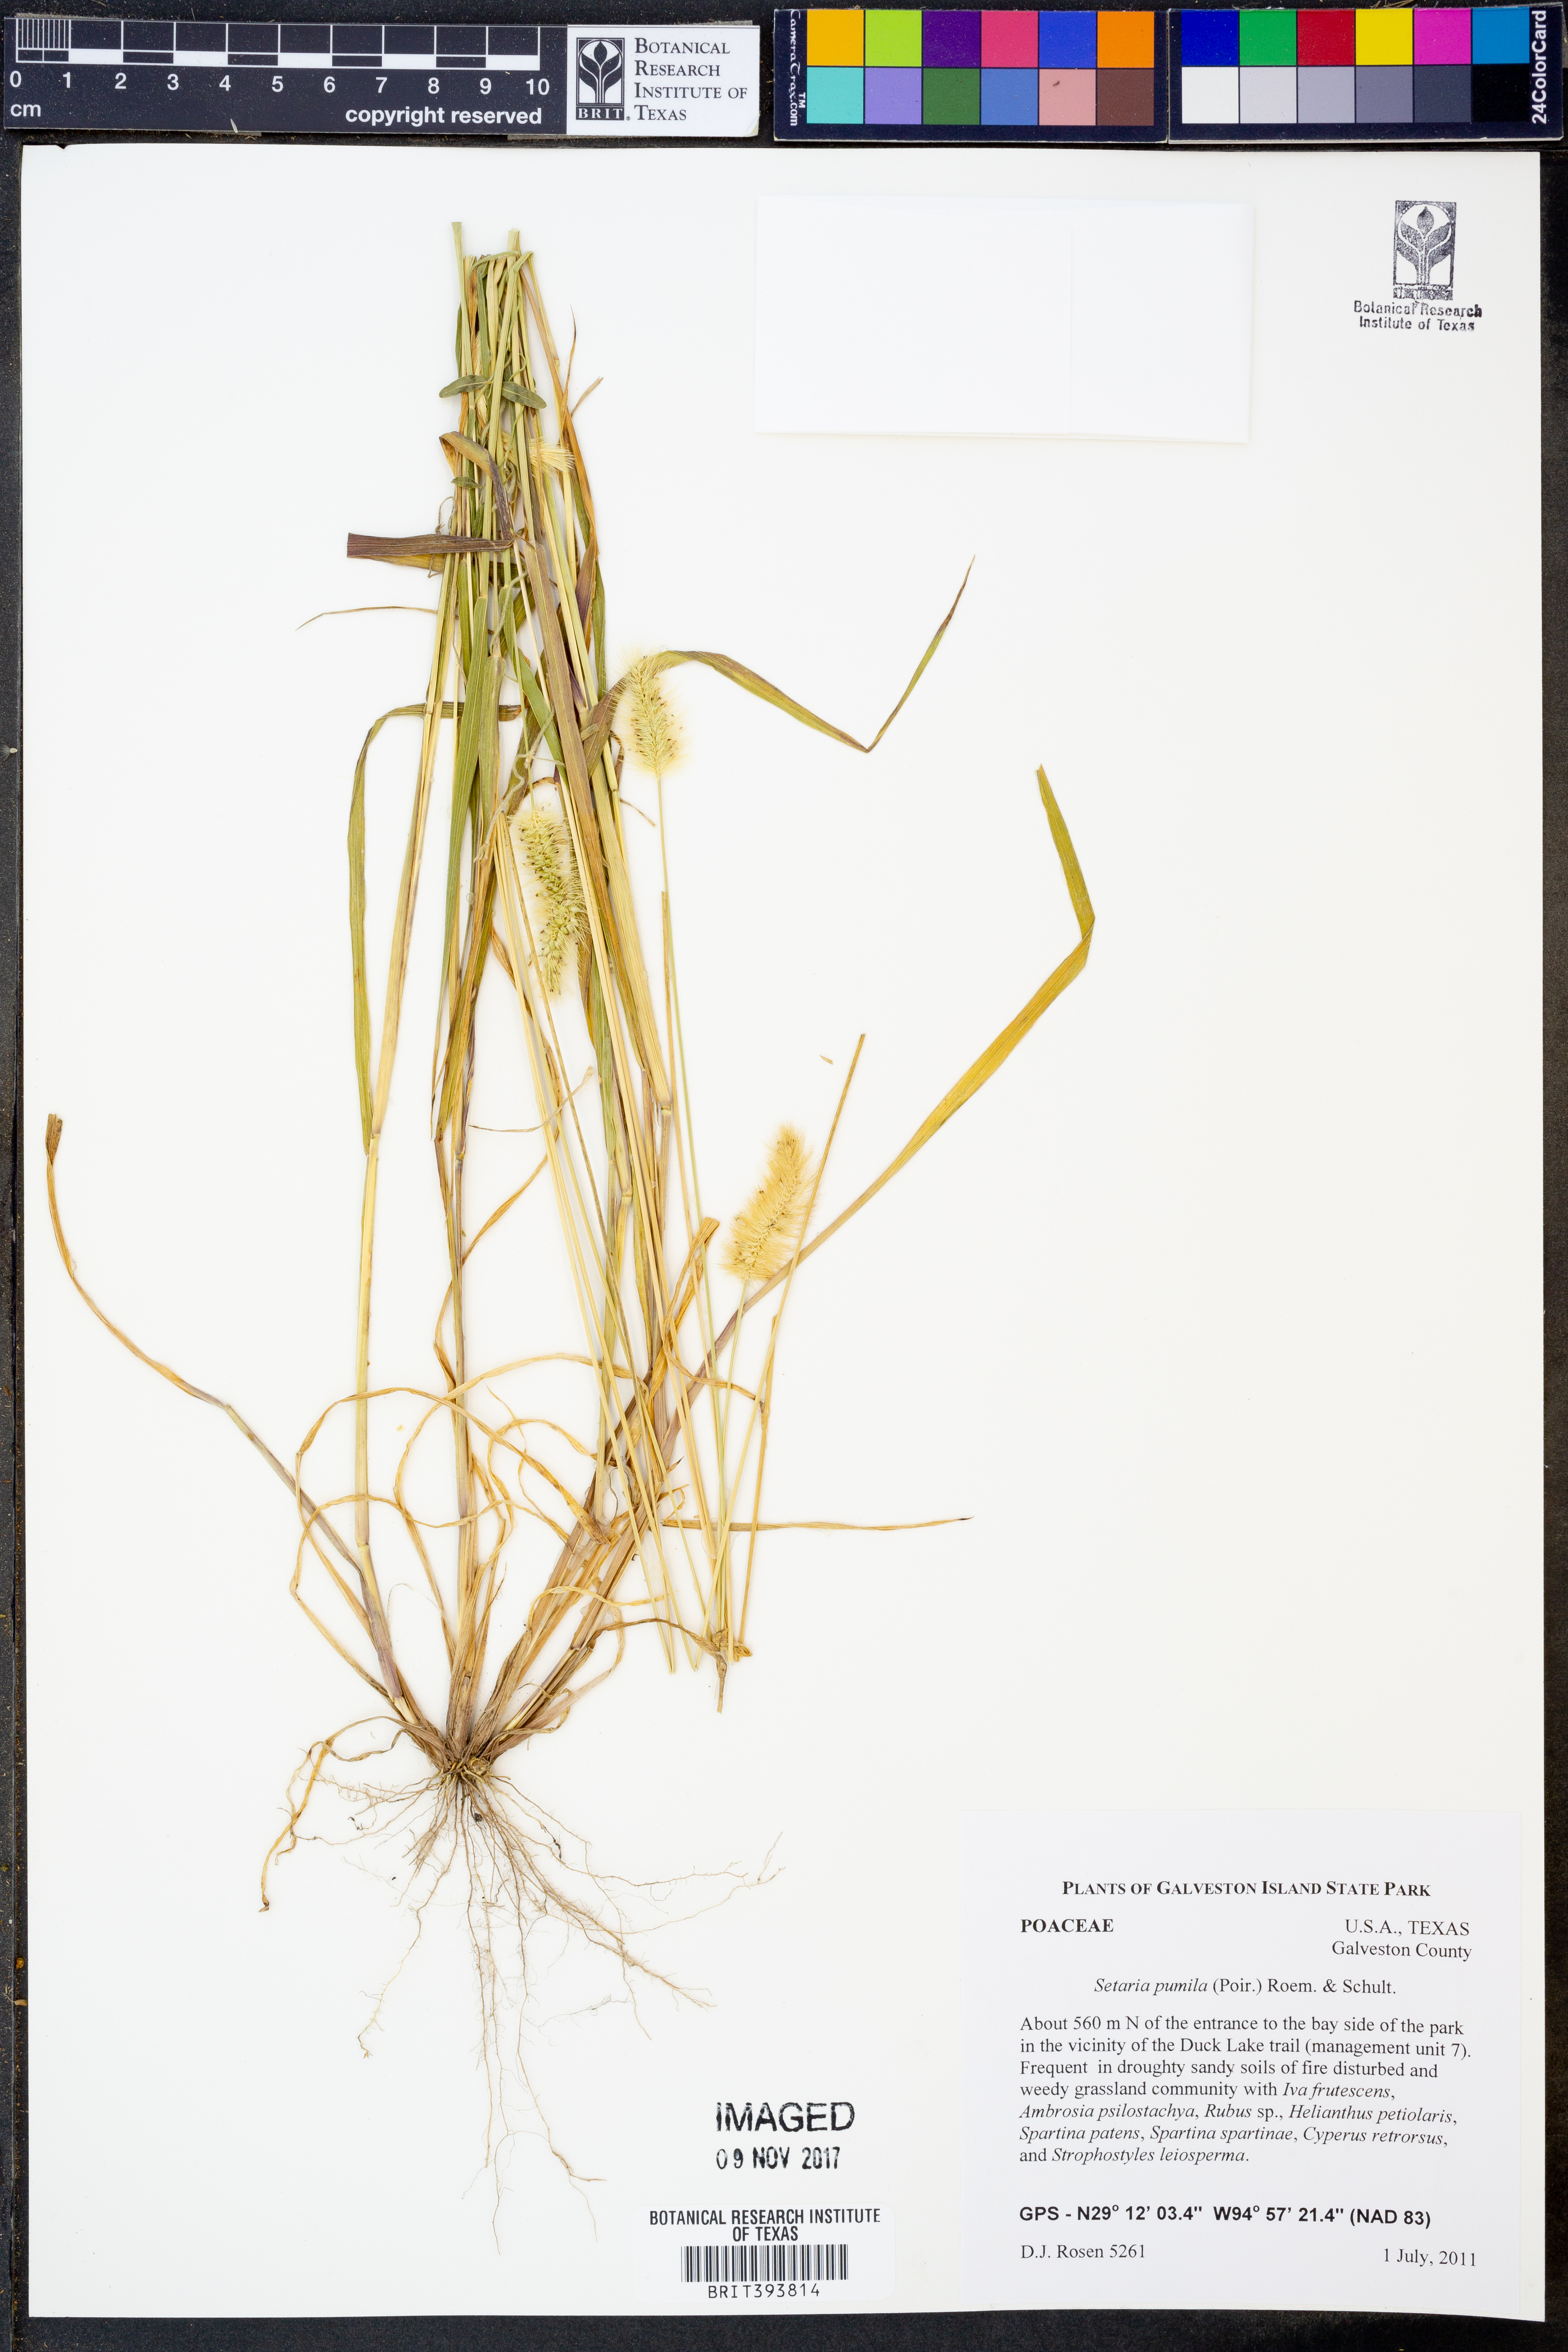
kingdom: Plantae
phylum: Tracheophyta
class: Liliopsida
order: Poales
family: Poaceae
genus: Setaria
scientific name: Setaria pumila
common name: Yellow bristle-grass
